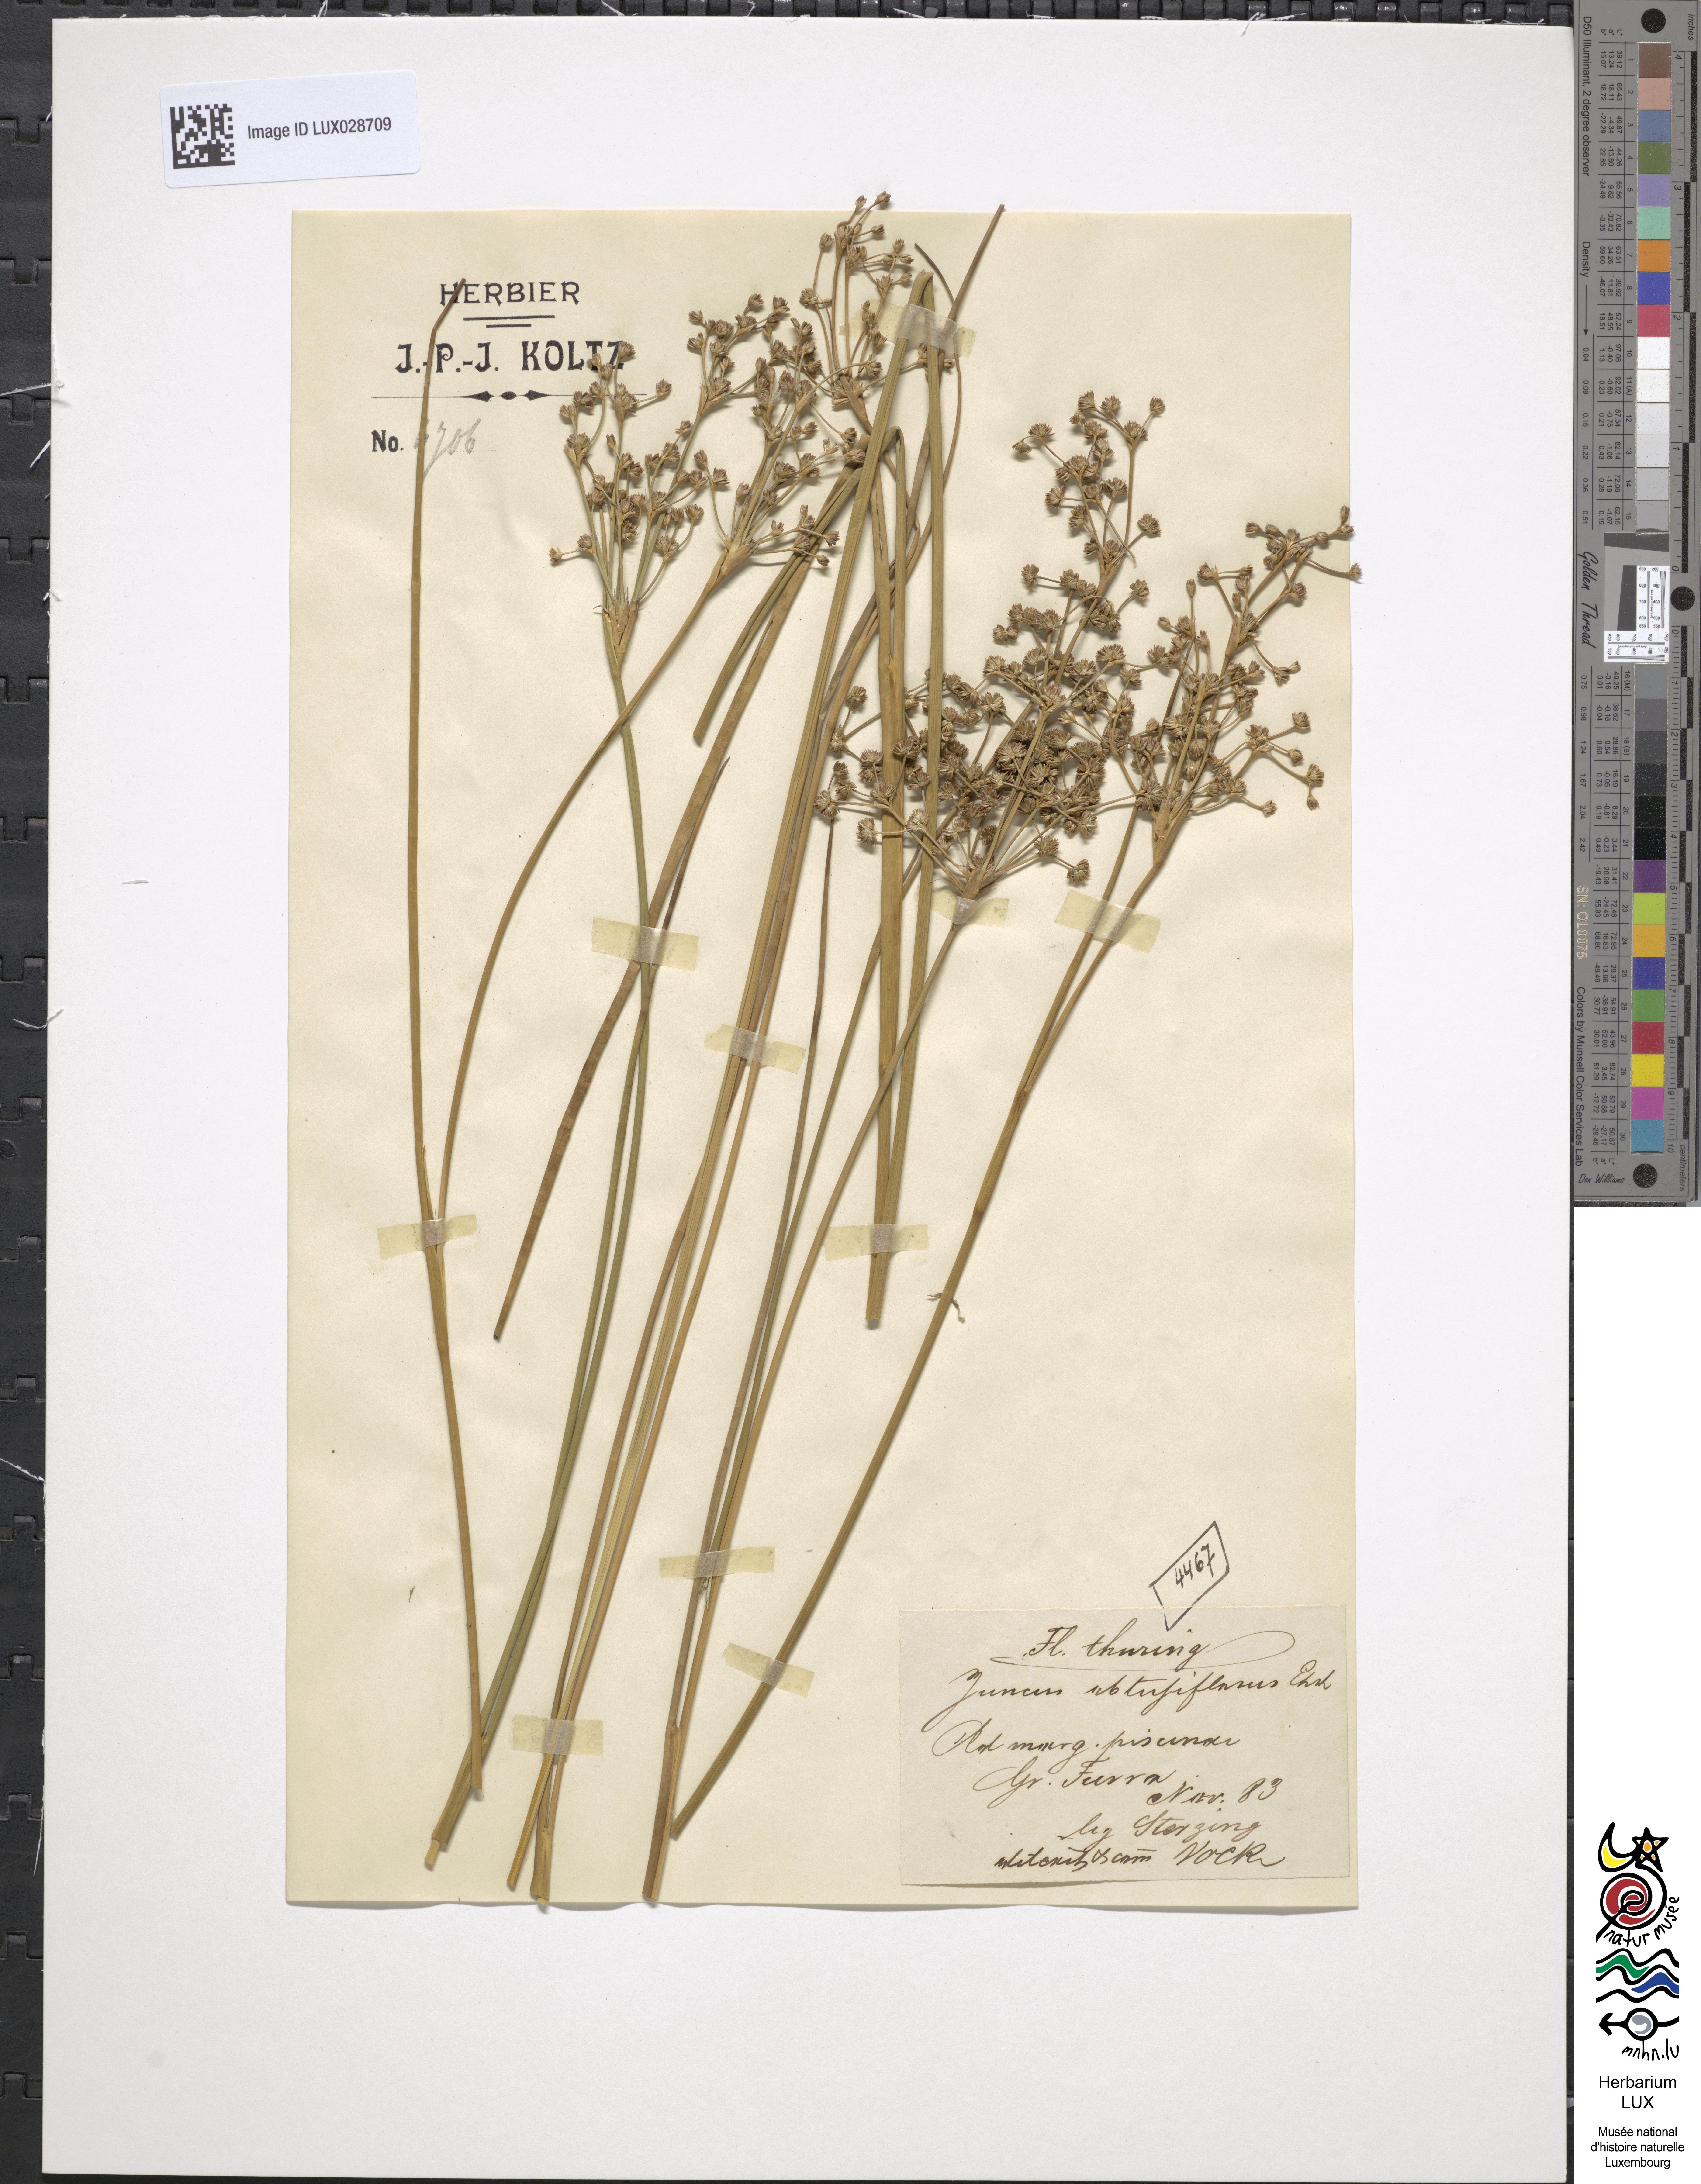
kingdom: Plantae
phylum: Tracheophyta
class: Liliopsida
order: Poales
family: Juncaceae
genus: Juncus
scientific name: Juncus subnodulosus
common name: Blunt-flowered rush
